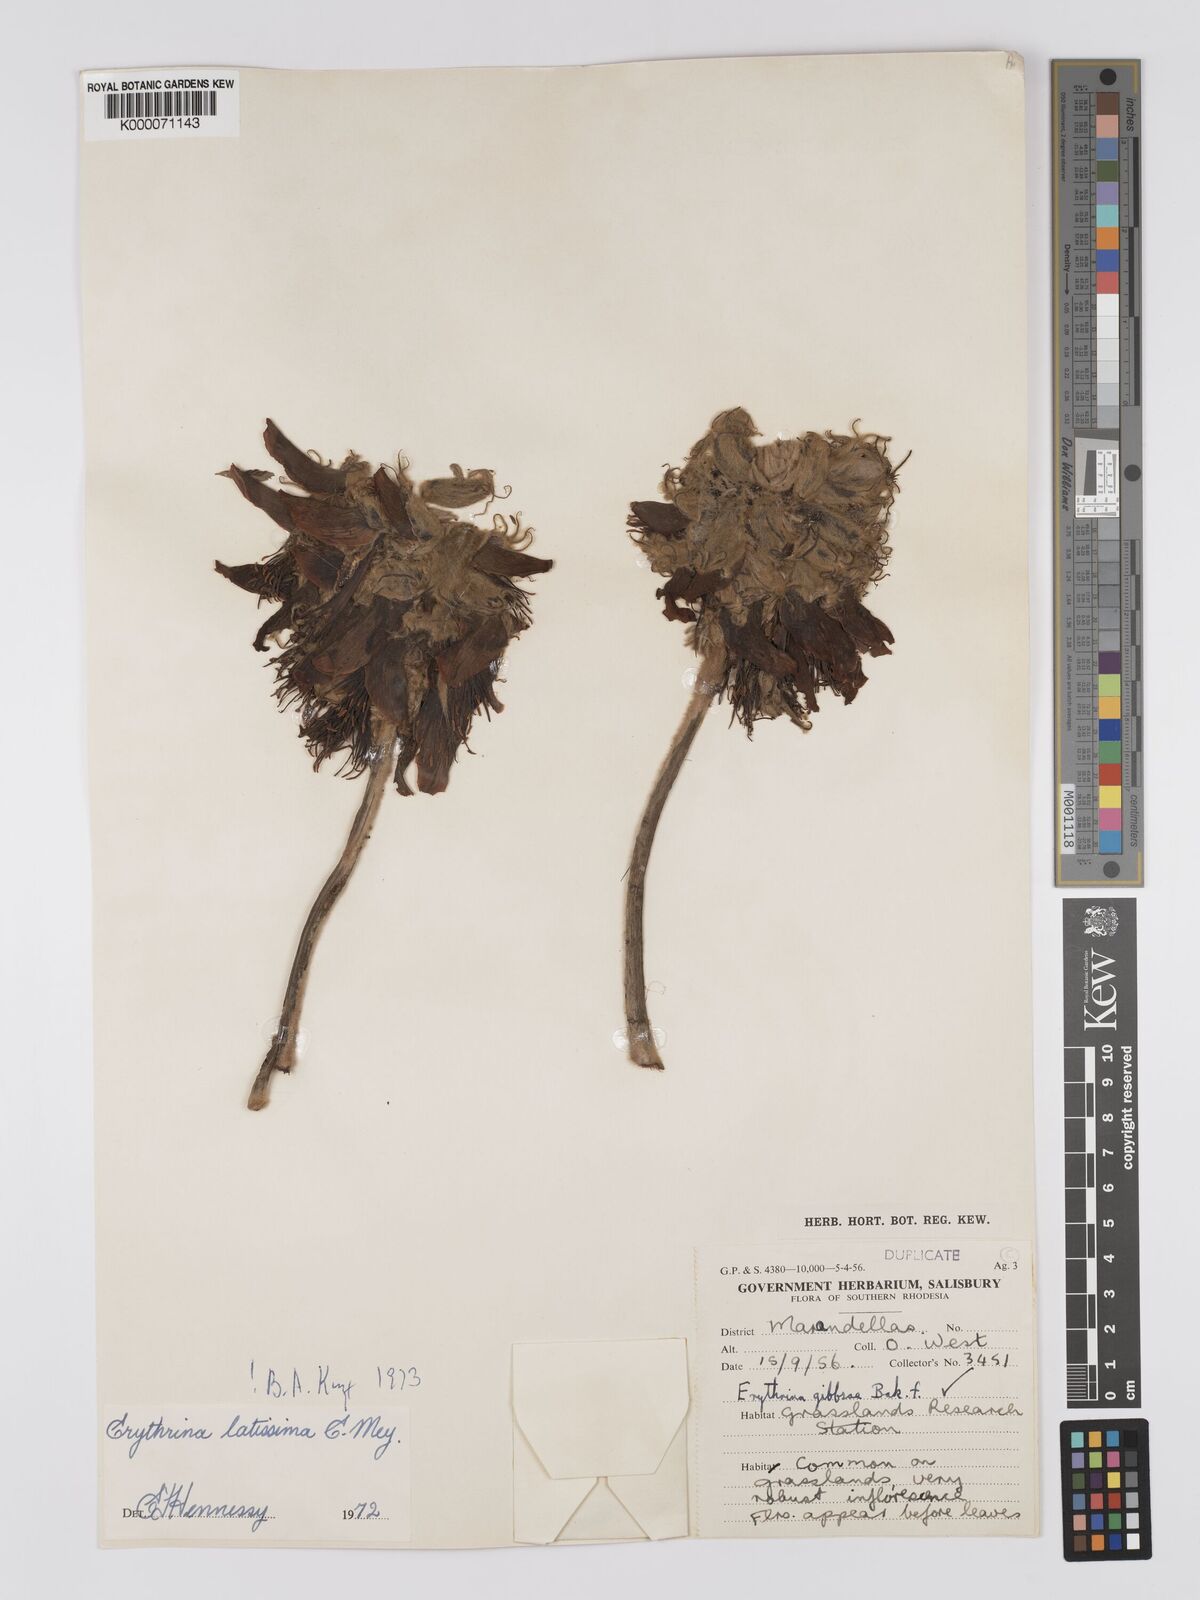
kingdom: Plantae
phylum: Tracheophyta
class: Magnoliopsida
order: Fabales
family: Fabaceae
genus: Erythrina
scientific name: Erythrina latissima
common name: Broad-leaved coral tree
